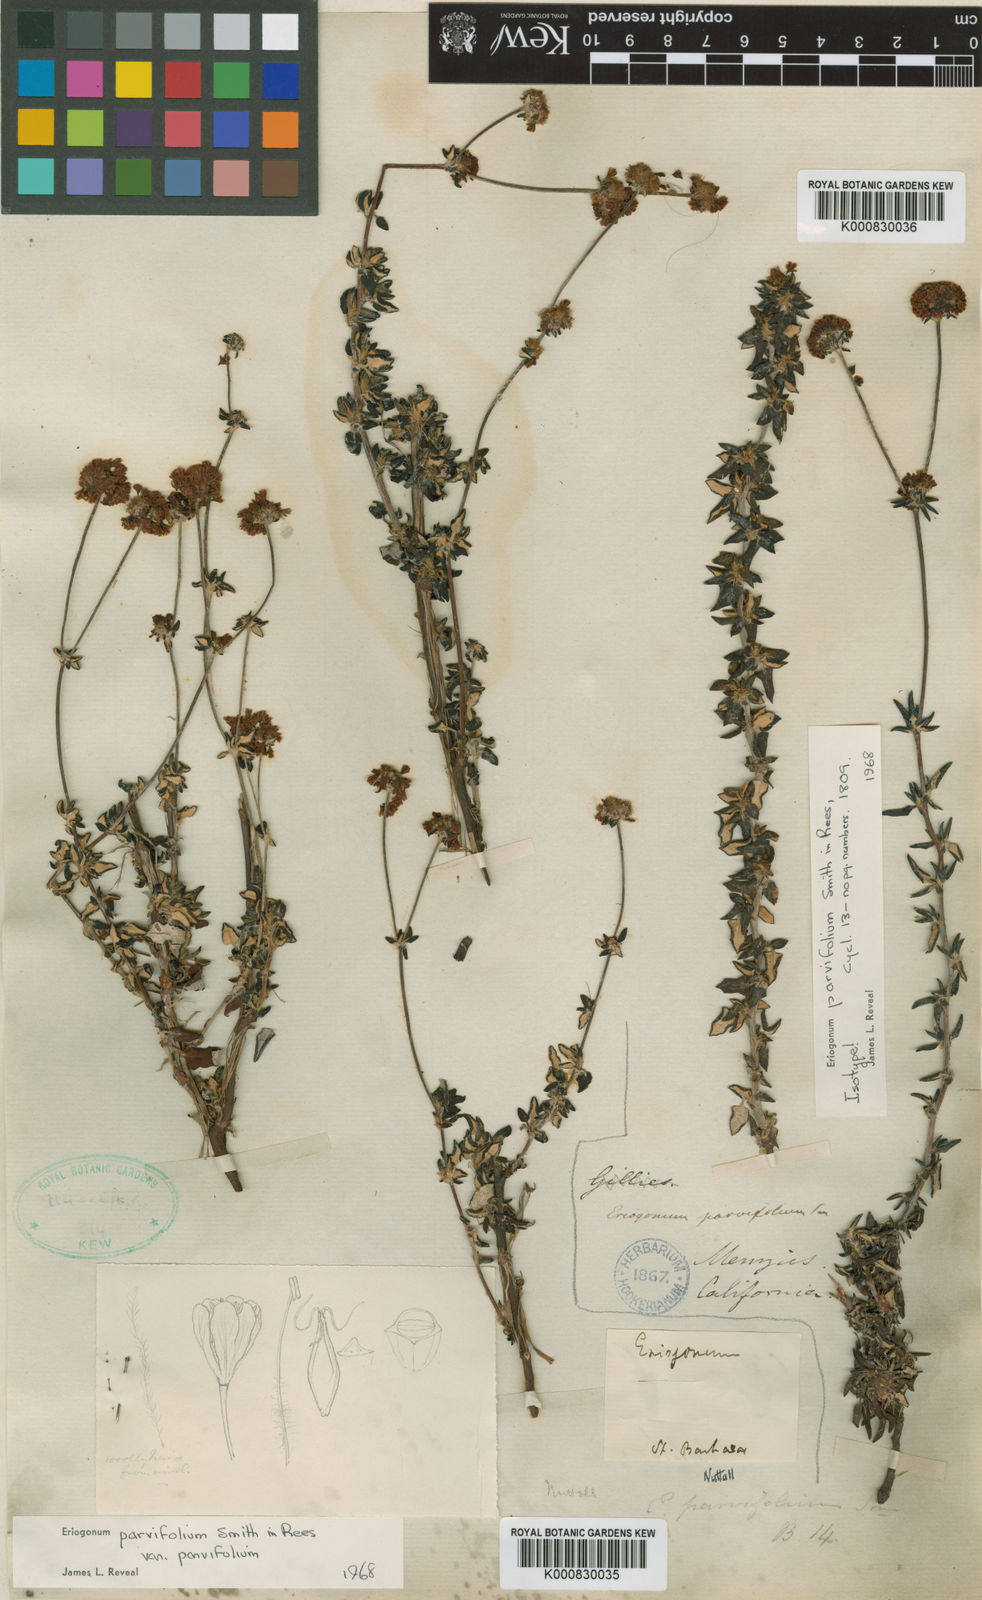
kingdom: Plantae
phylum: Tracheophyta
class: Magnoliopsida
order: Caryophyllales
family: Polygonaceae
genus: Eriogonum
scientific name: Eriogonum parvifolium
